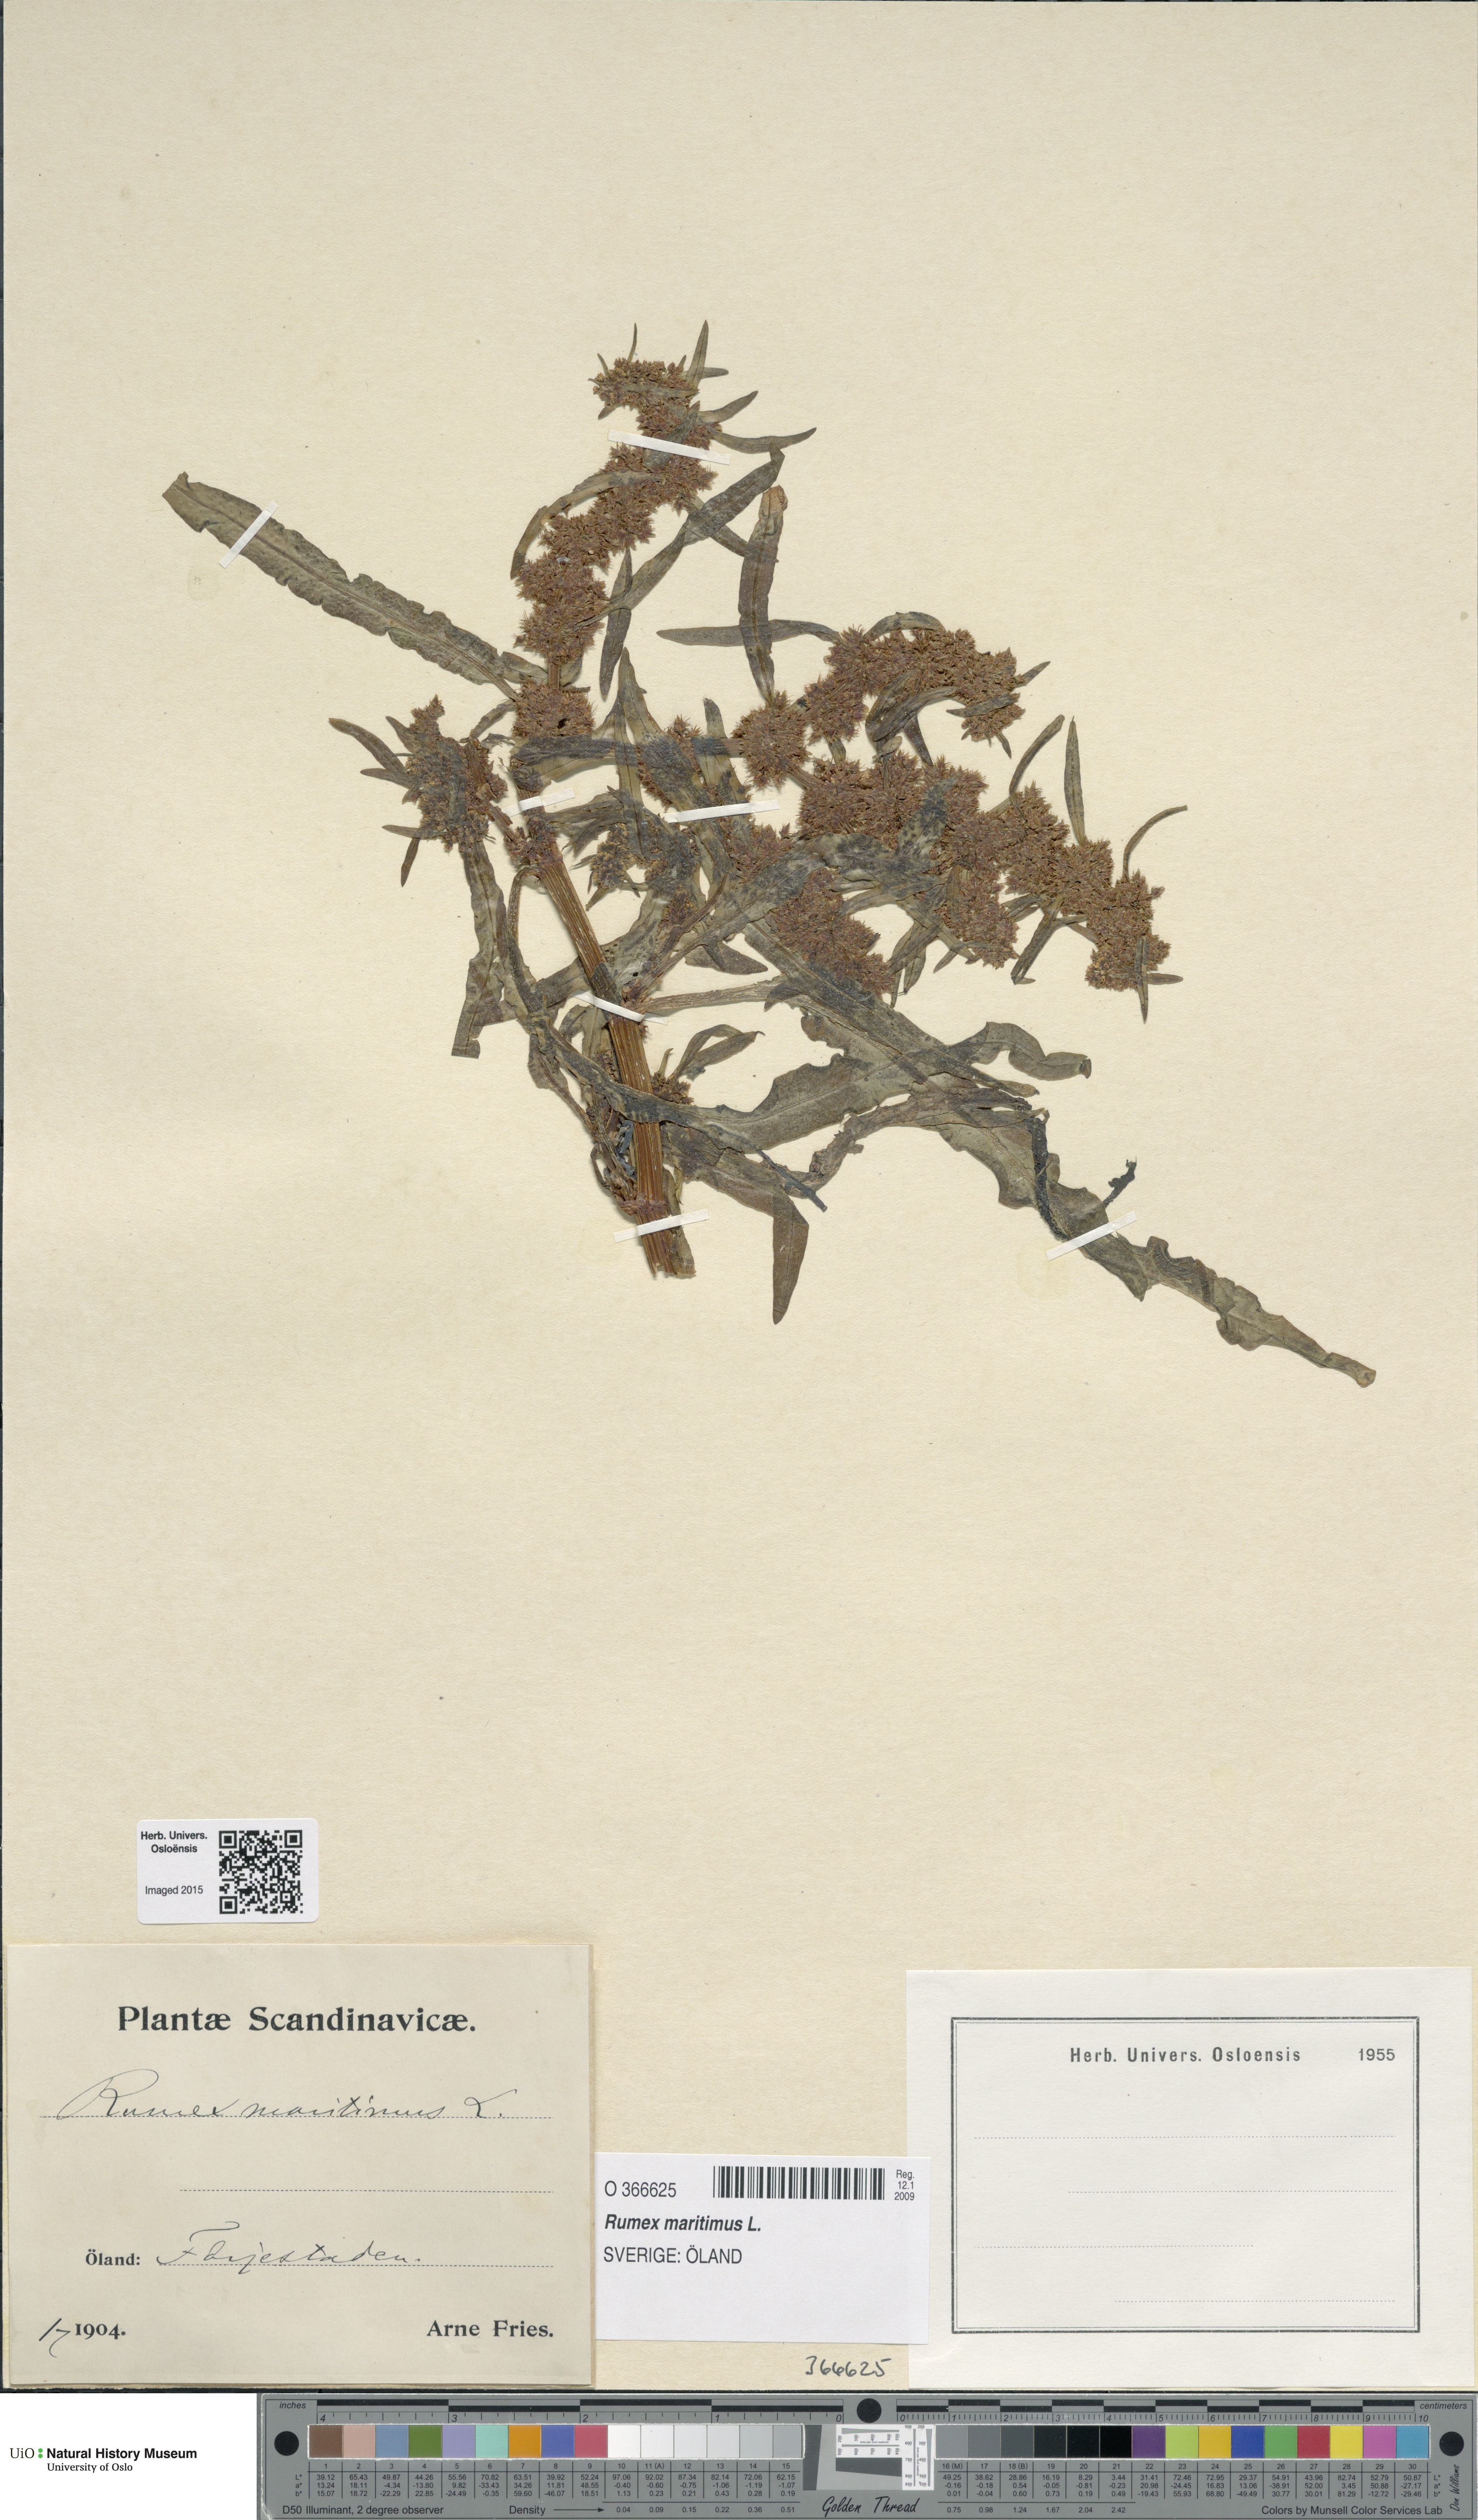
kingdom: Plantae
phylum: Tracheophyta
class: Magnoliopsida
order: Caryophyllales
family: Polygonaceae
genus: Rumex
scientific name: Rumex maritimus
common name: Golden dock
